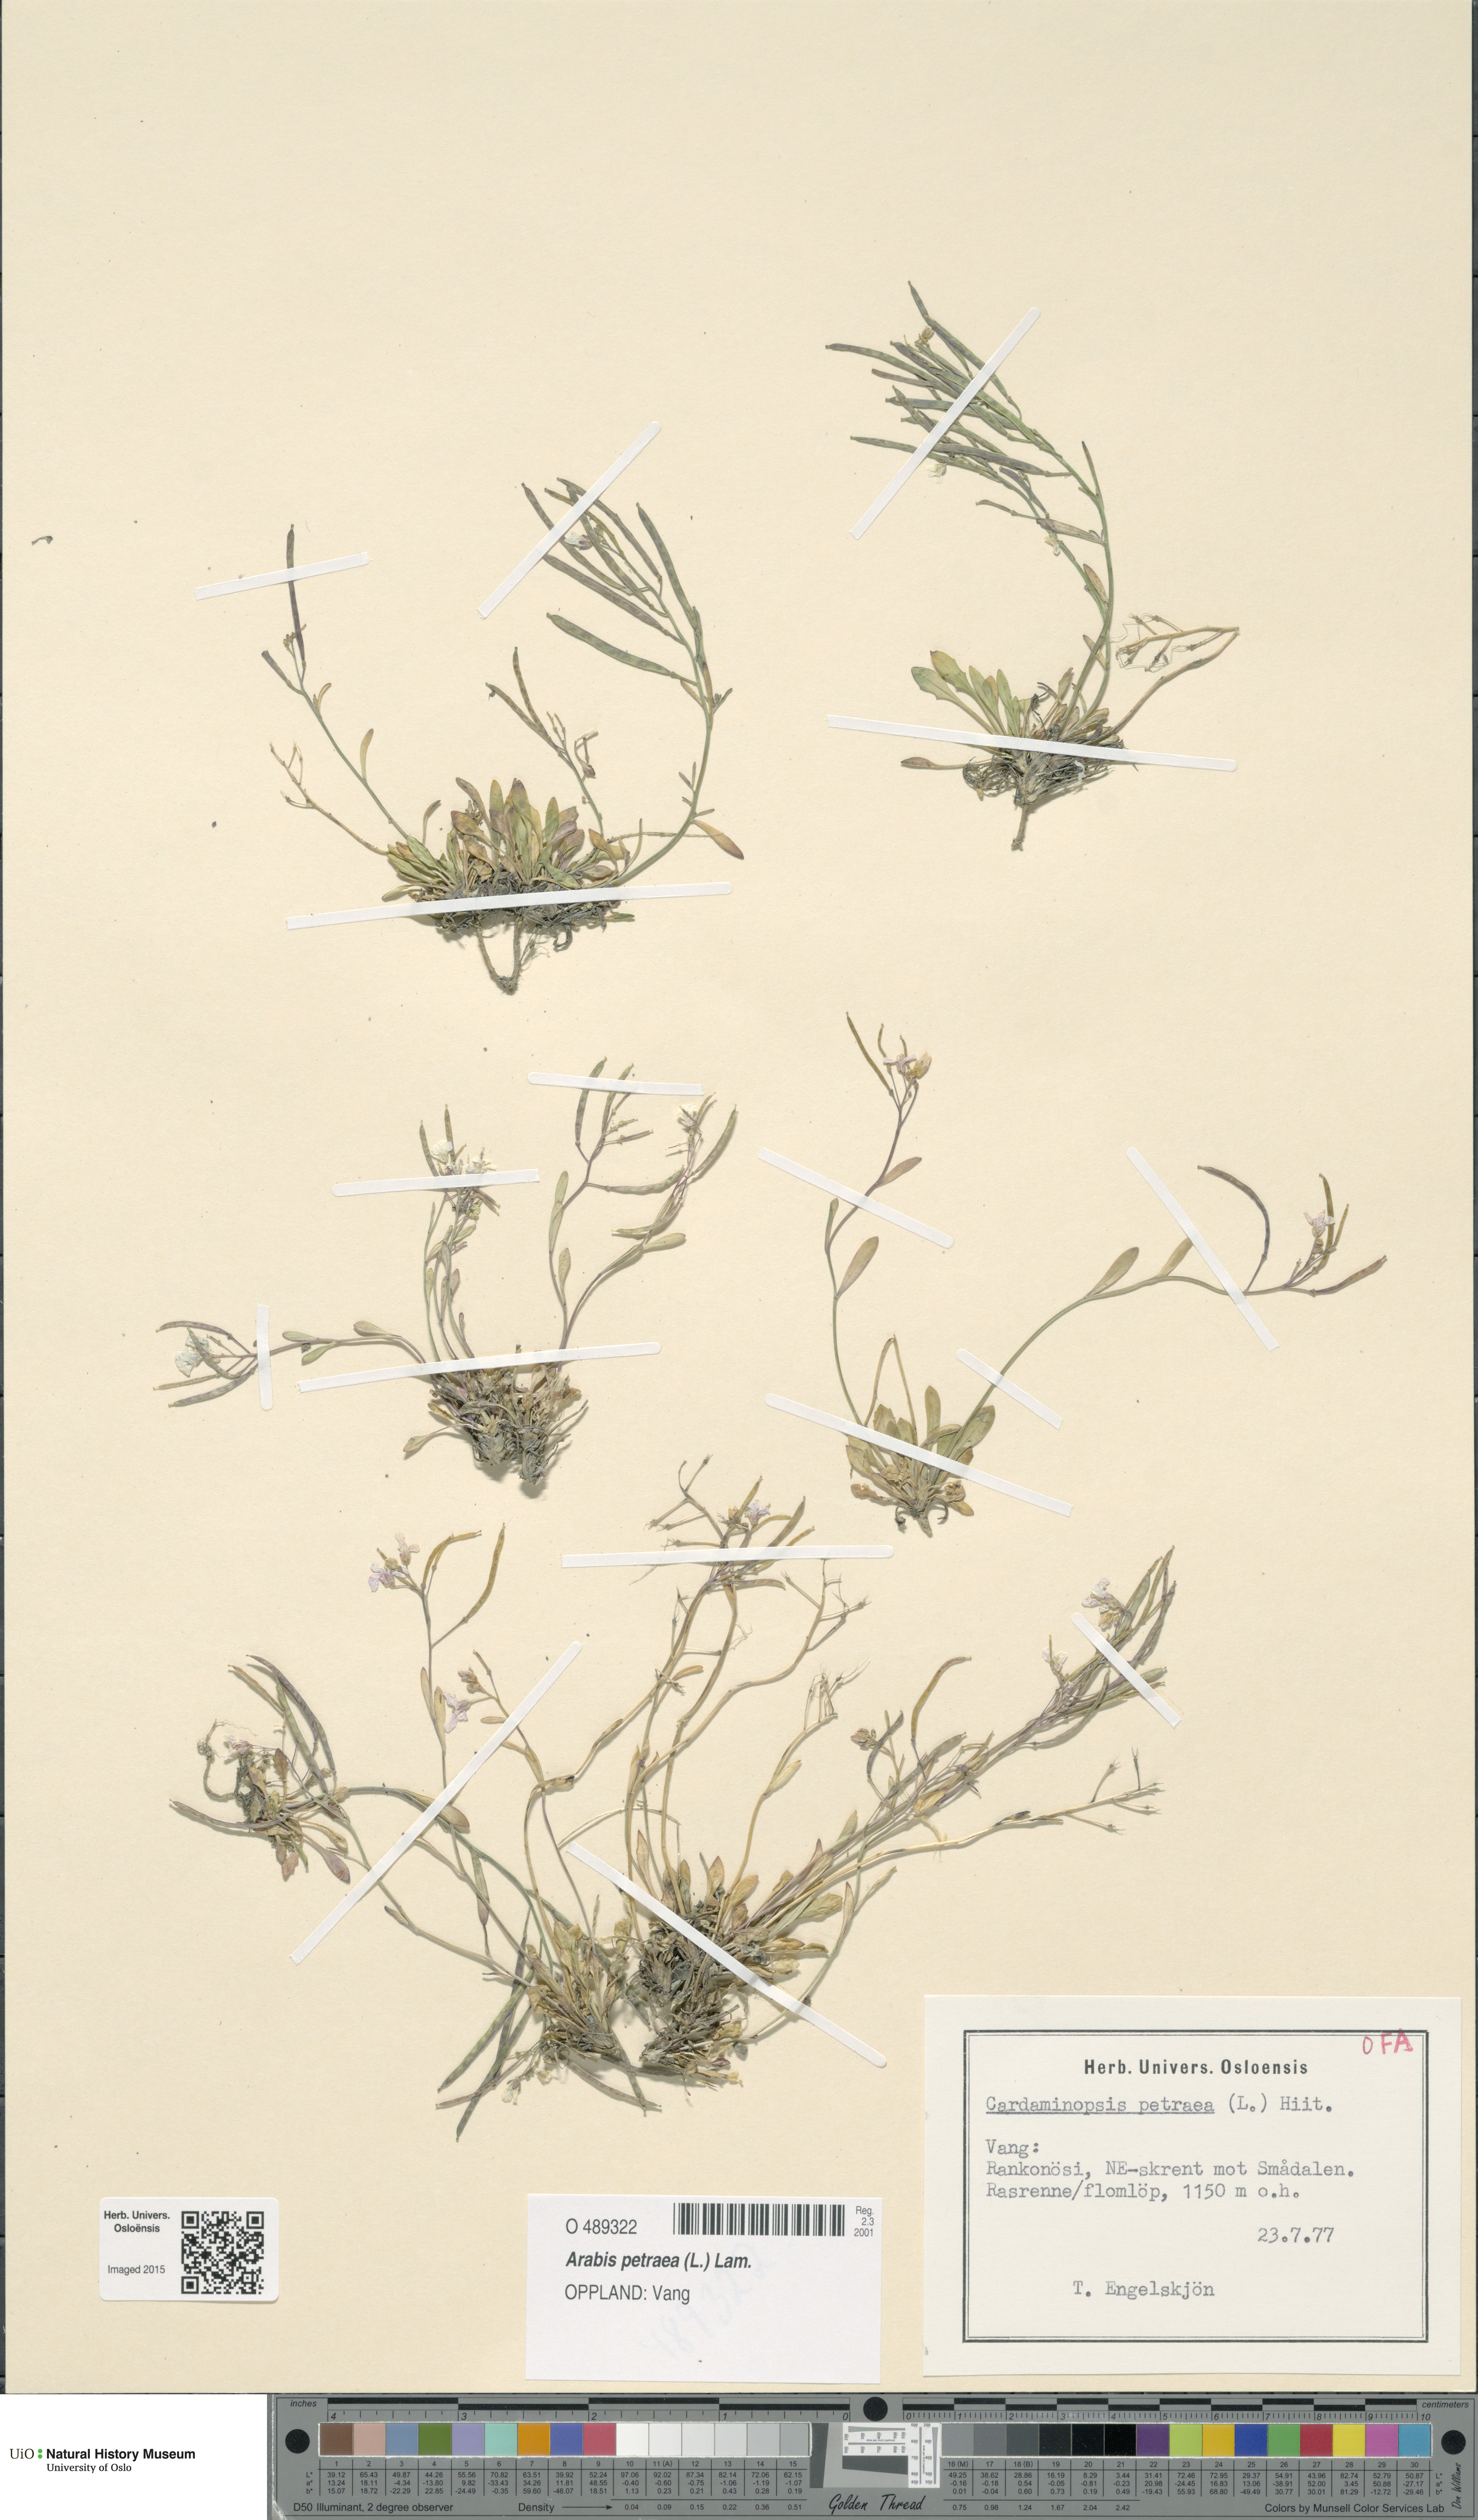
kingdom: Plantae
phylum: Tracheophyta
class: Magnoliopsida
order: Brassicales
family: Brassicaceae
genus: Arabidopsis
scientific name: Arabidopsis petraea
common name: Northern rock-cress
